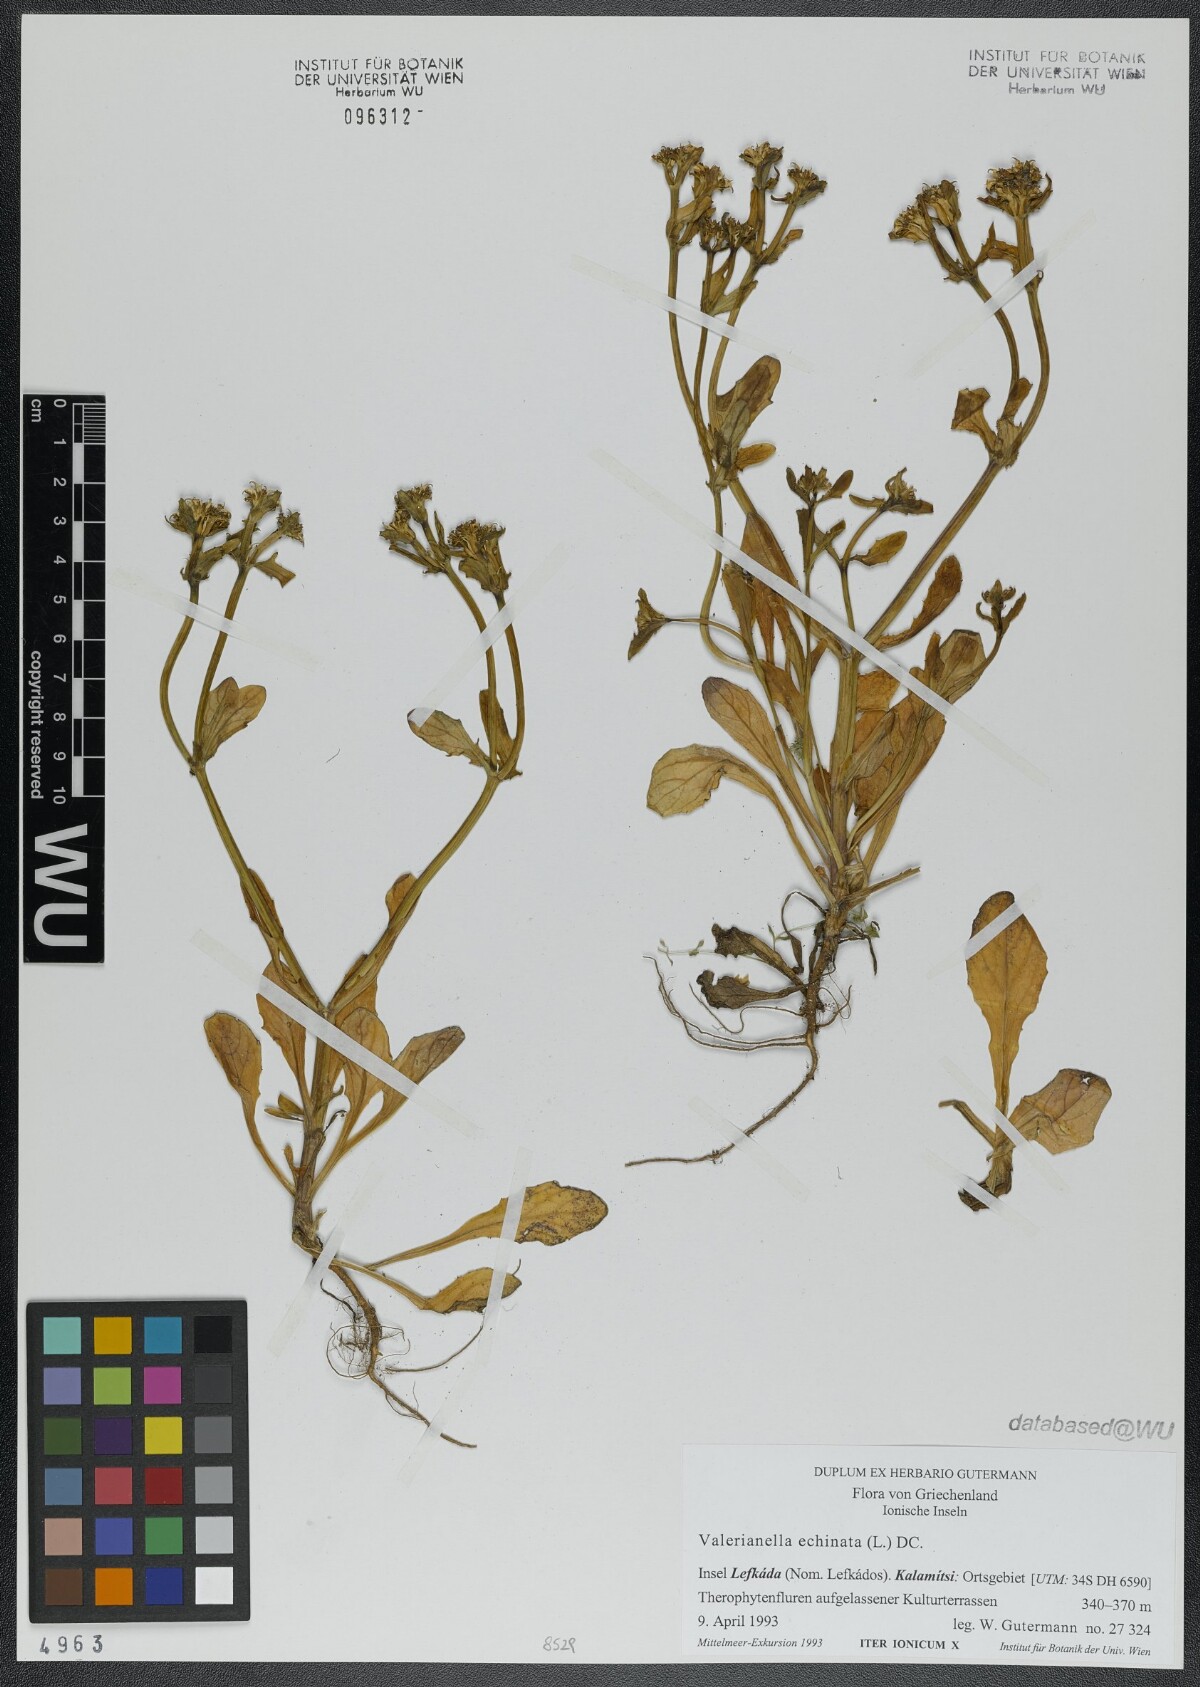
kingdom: Plantae
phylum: Tracheophyta
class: Magnoliopsida
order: Dipsacales
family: Caprifoliaceae
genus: Valerianella
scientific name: Valerianella echinata
